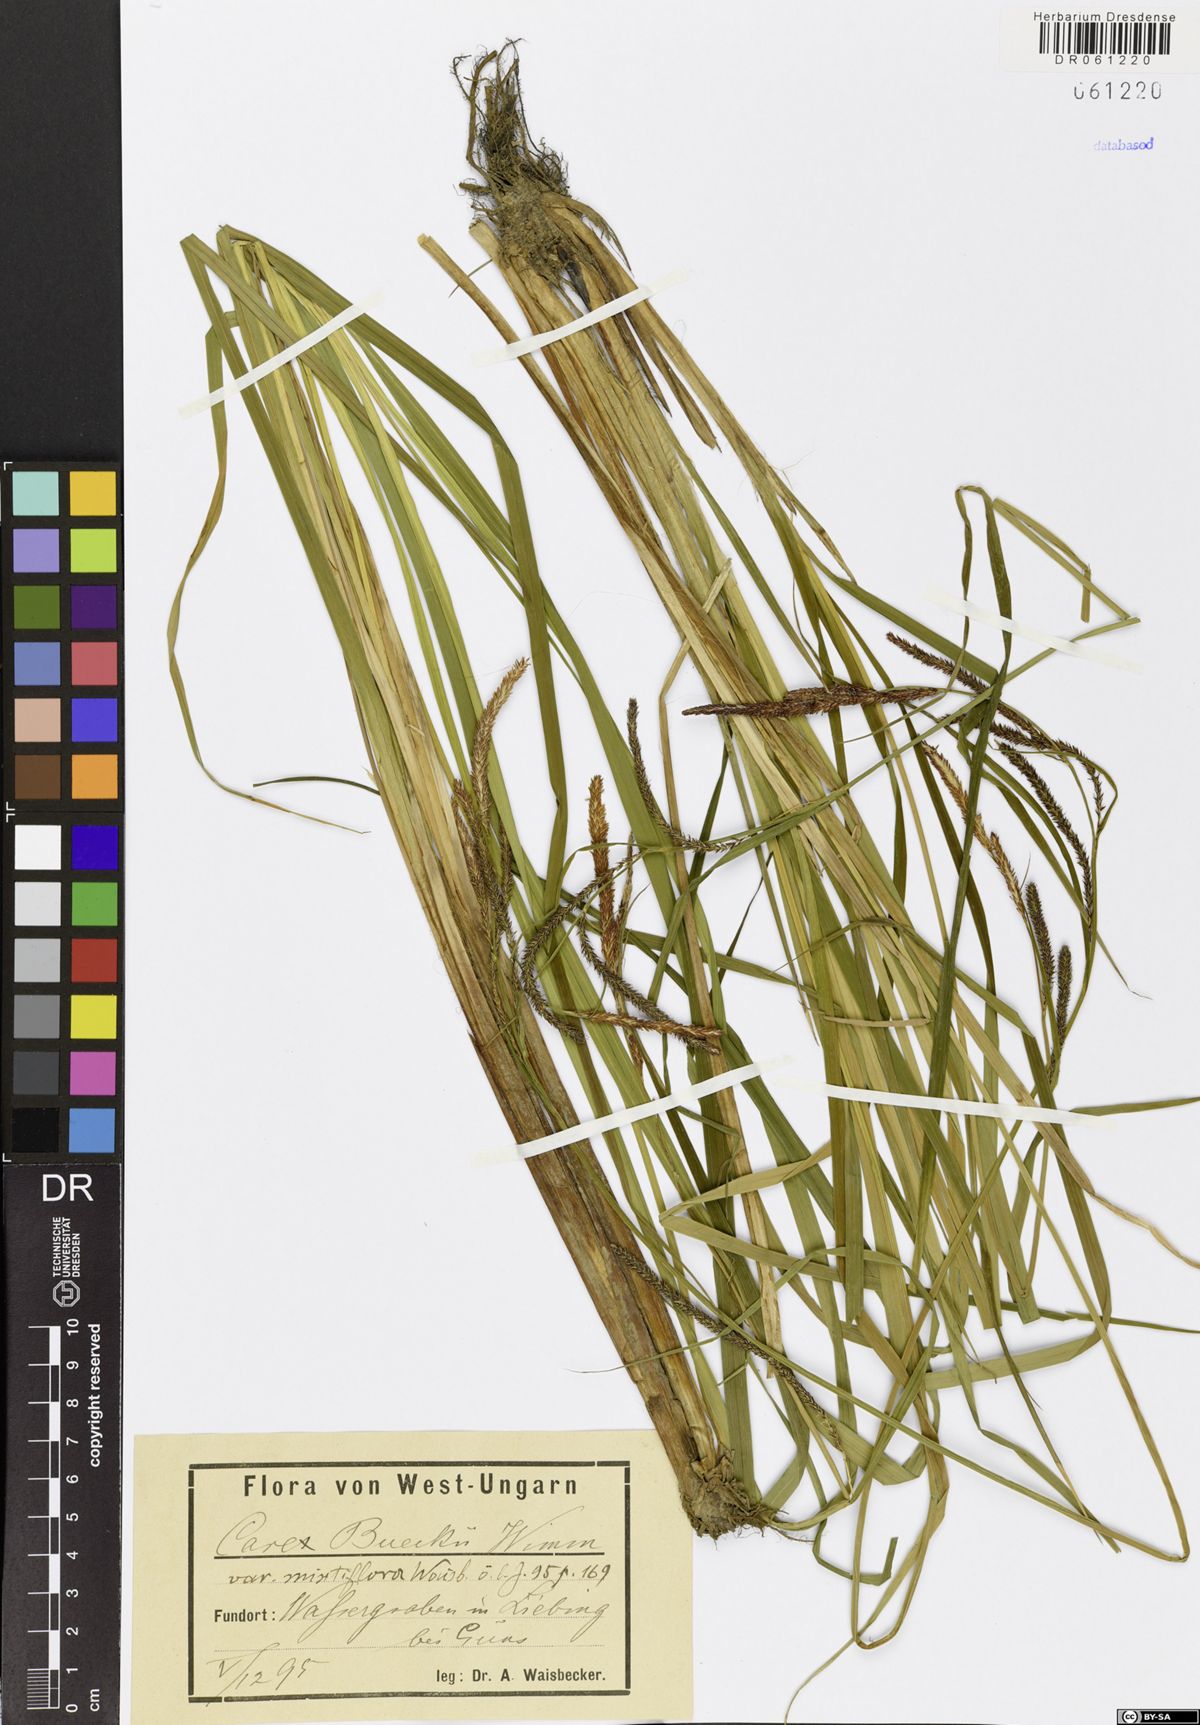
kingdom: Plantae
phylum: Tracheophyta
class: Liliopsida
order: Poales
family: Cyperaceae
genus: Carex
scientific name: Carex buekii
